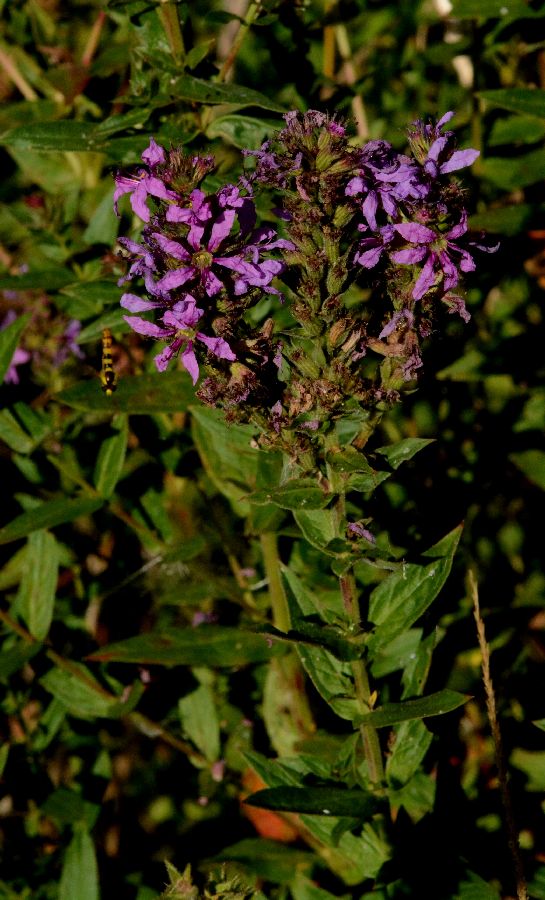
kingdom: Plantae
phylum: Tracheophyta
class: Magnoliopsida
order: Myrtales
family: Lythraceae
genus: Lythrum
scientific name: Lythrum salicaria
